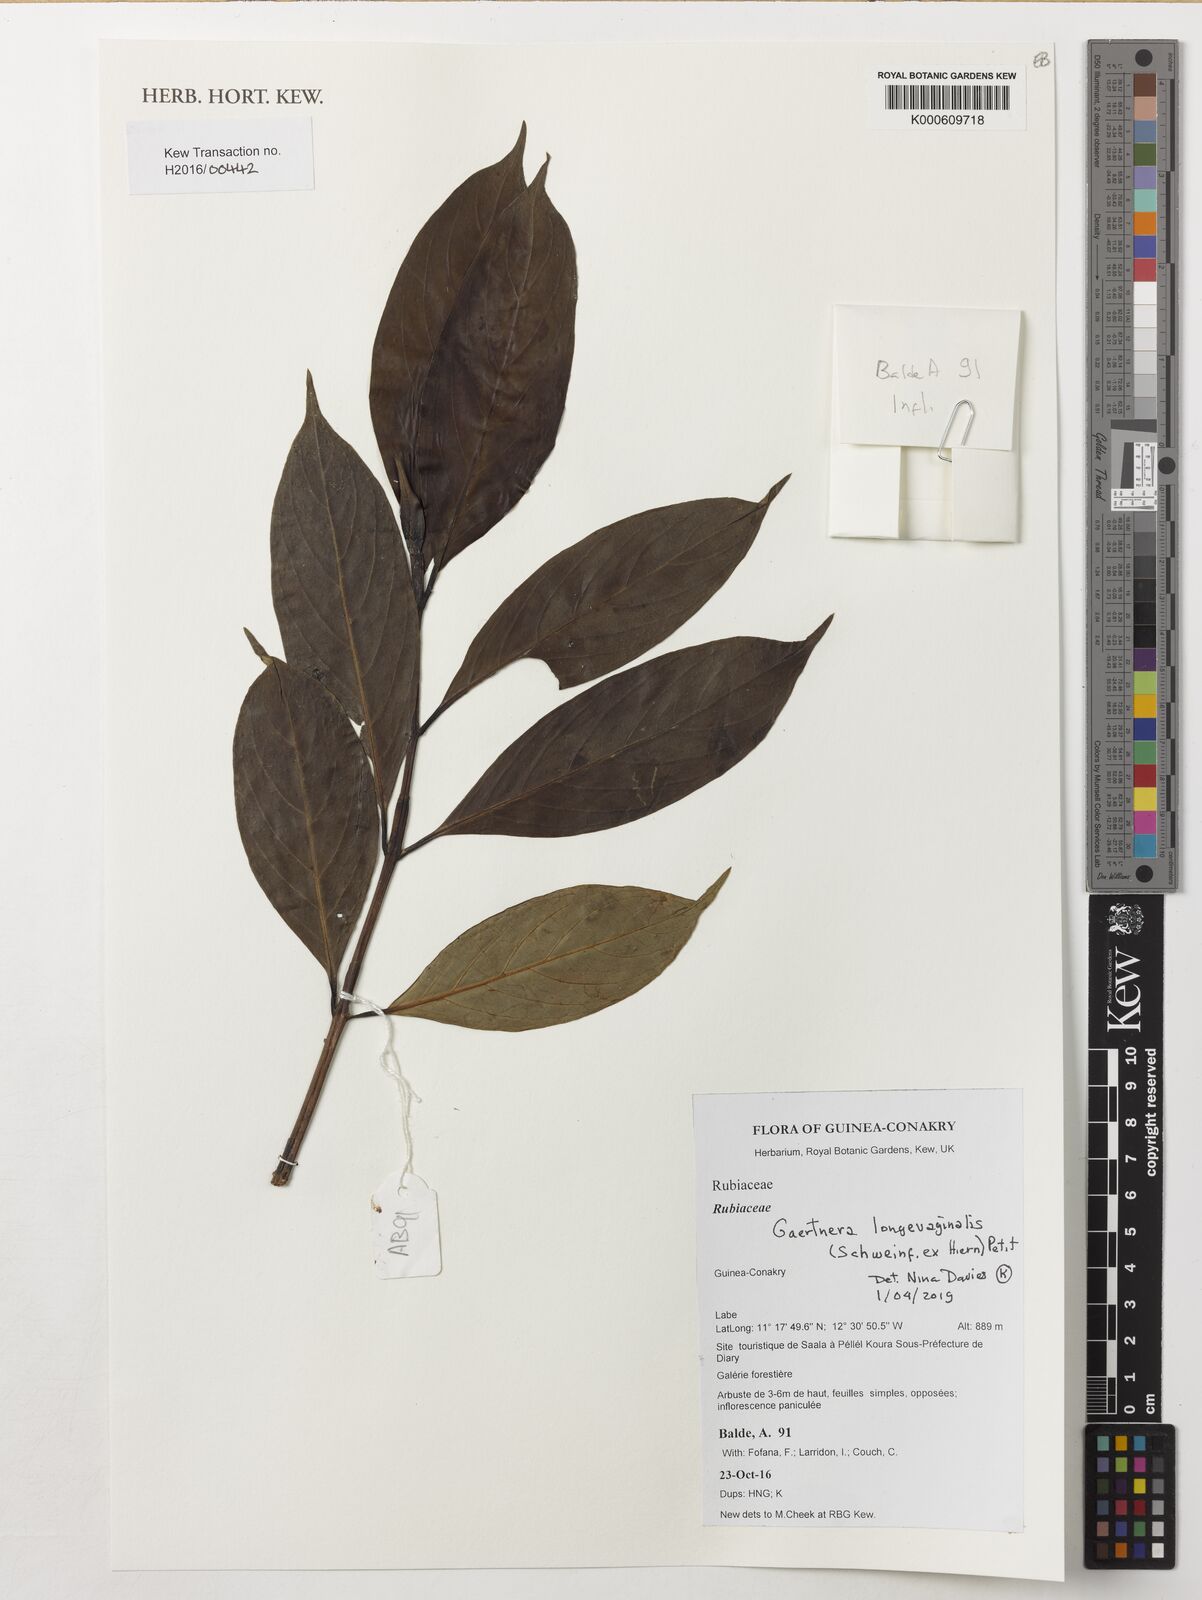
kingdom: Plantae
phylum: Tracheophyta
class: Magnoliopsida
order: Gentianales
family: Rubiaceae
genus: Gaertnera
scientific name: Gaertnera longivaginalis
